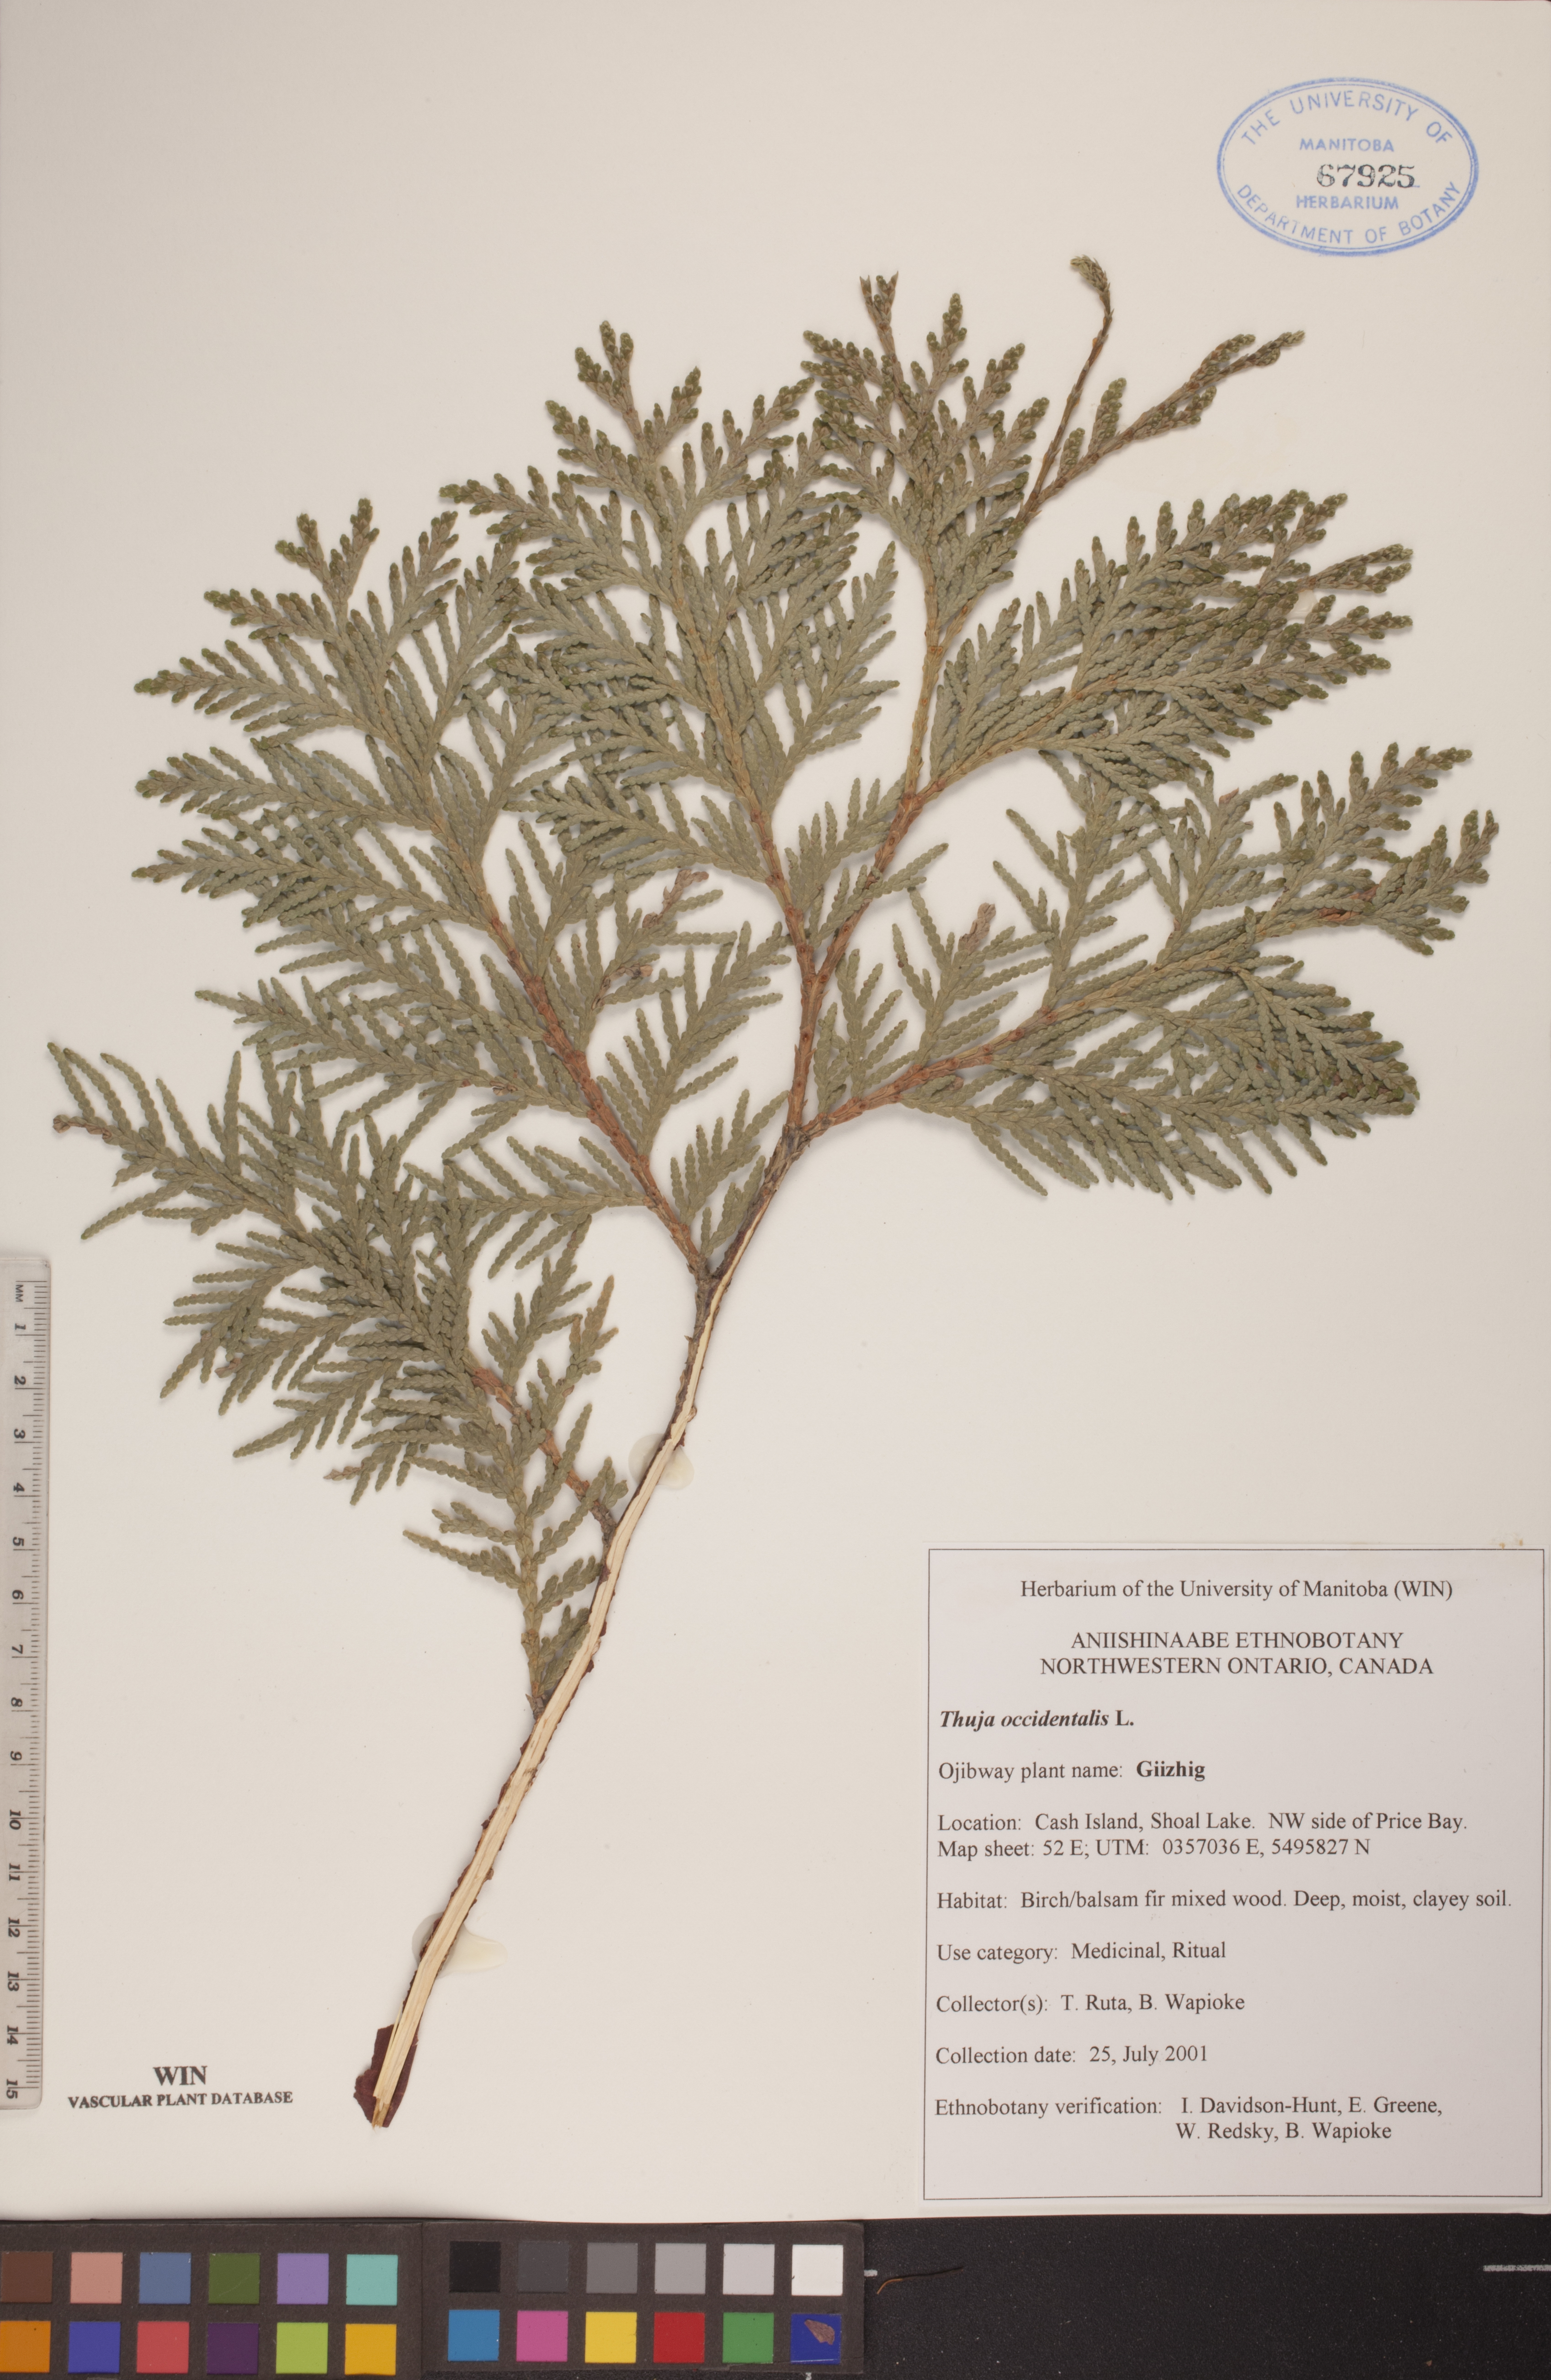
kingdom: Plantae
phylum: Tracheophyta
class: Pinopsida
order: Pinales
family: Cupressaceae
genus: Thuja
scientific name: Thuja occidentalis
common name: Northern white-cedar
